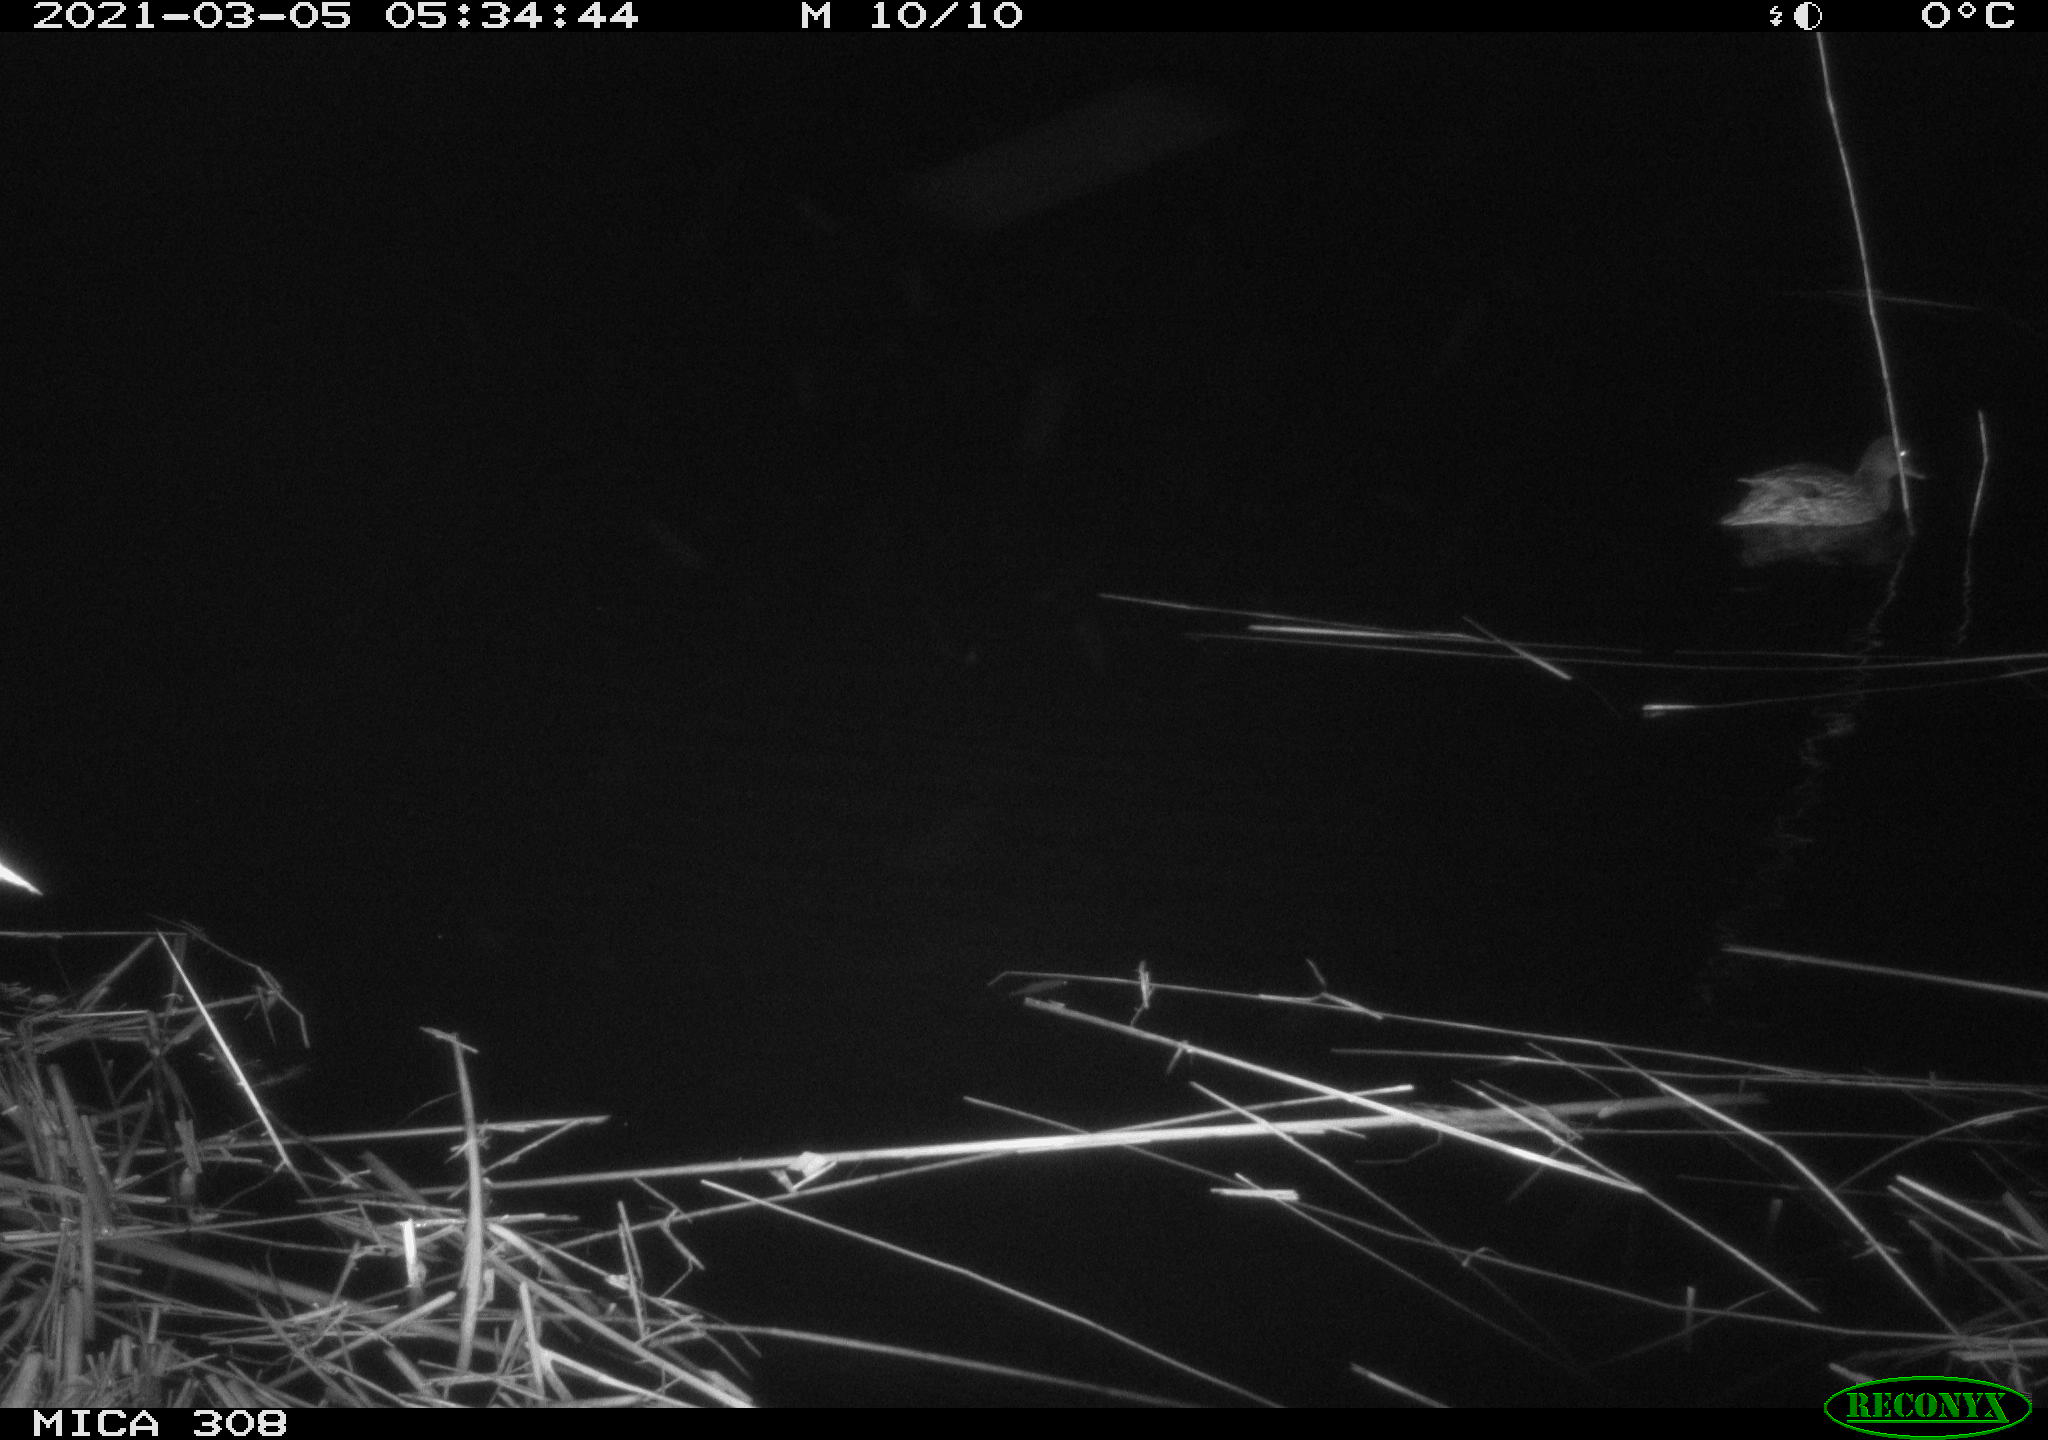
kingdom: Animalia
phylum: Chordata
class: Aves
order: Anseriformes
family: Anatidae
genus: Anas
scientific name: Anas platyrhynchos
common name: Mallard
